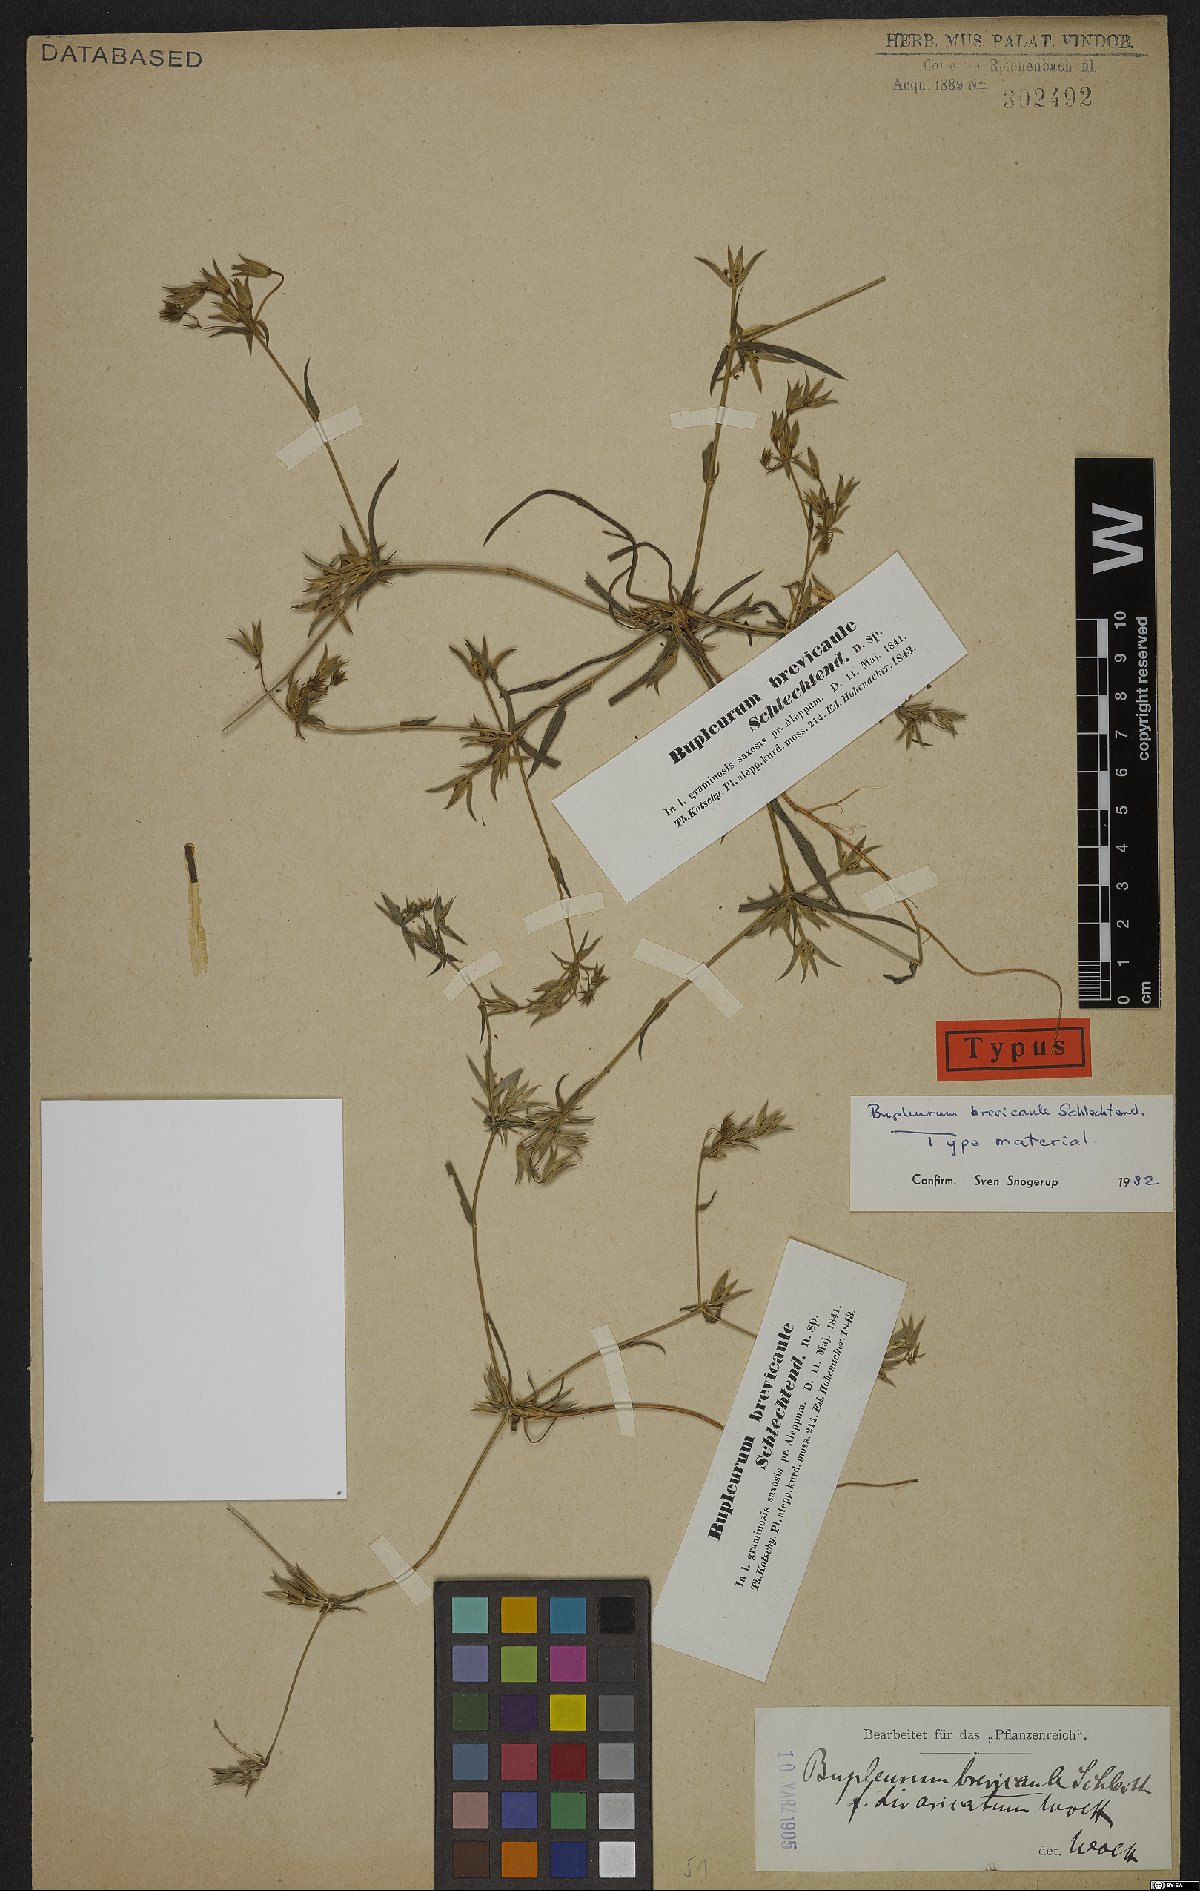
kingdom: Plantae
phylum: Tracheophyta
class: Magnoliopsida
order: Apiales
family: Apiaceae
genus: Bupleurum
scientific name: Bupleurum brevicaule
